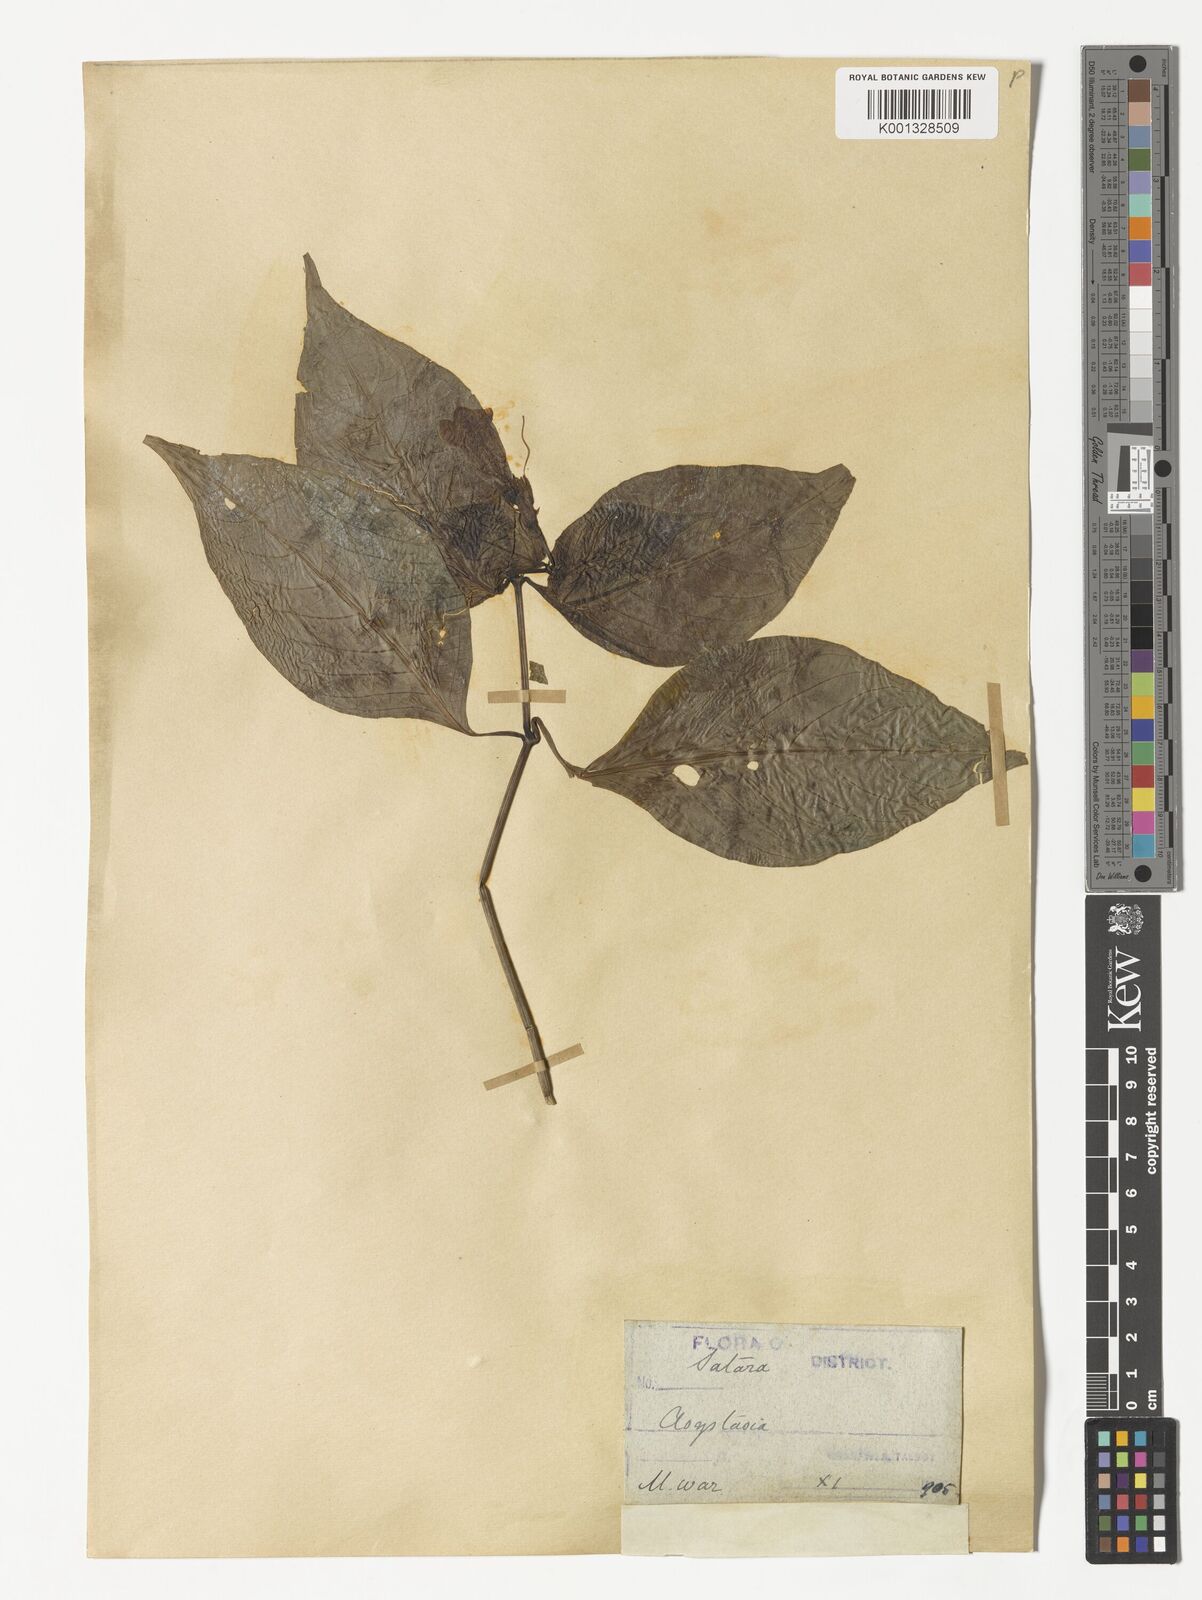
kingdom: Plantae
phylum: Tracheophyta
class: Magnoliopsida
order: Lamiales
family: Acanthaceae
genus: Asystasia
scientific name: Asystasia nemorum
